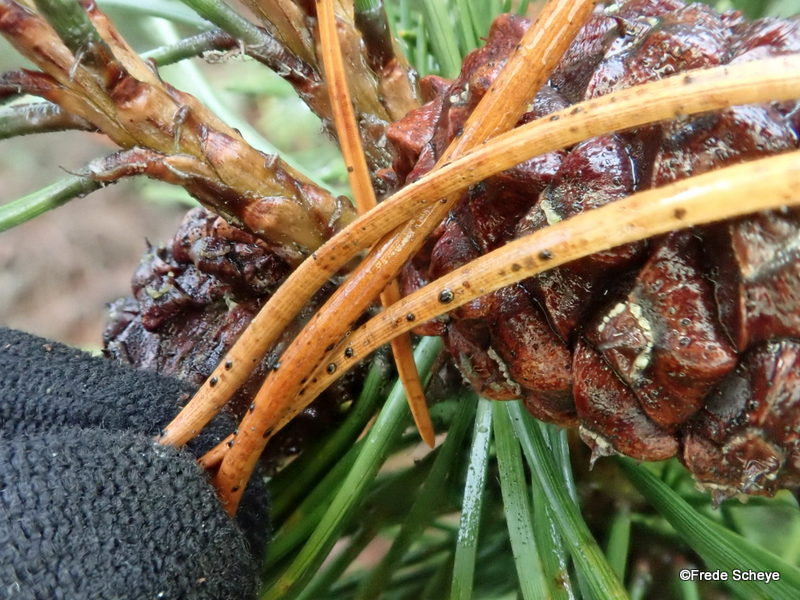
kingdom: Fungi
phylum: Ascomycota
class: Leotiomycetes
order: Rhytismatales
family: Rhytismataceae
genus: Lophodermium
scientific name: Lophodermium pinastri
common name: fyrre-fureplet
